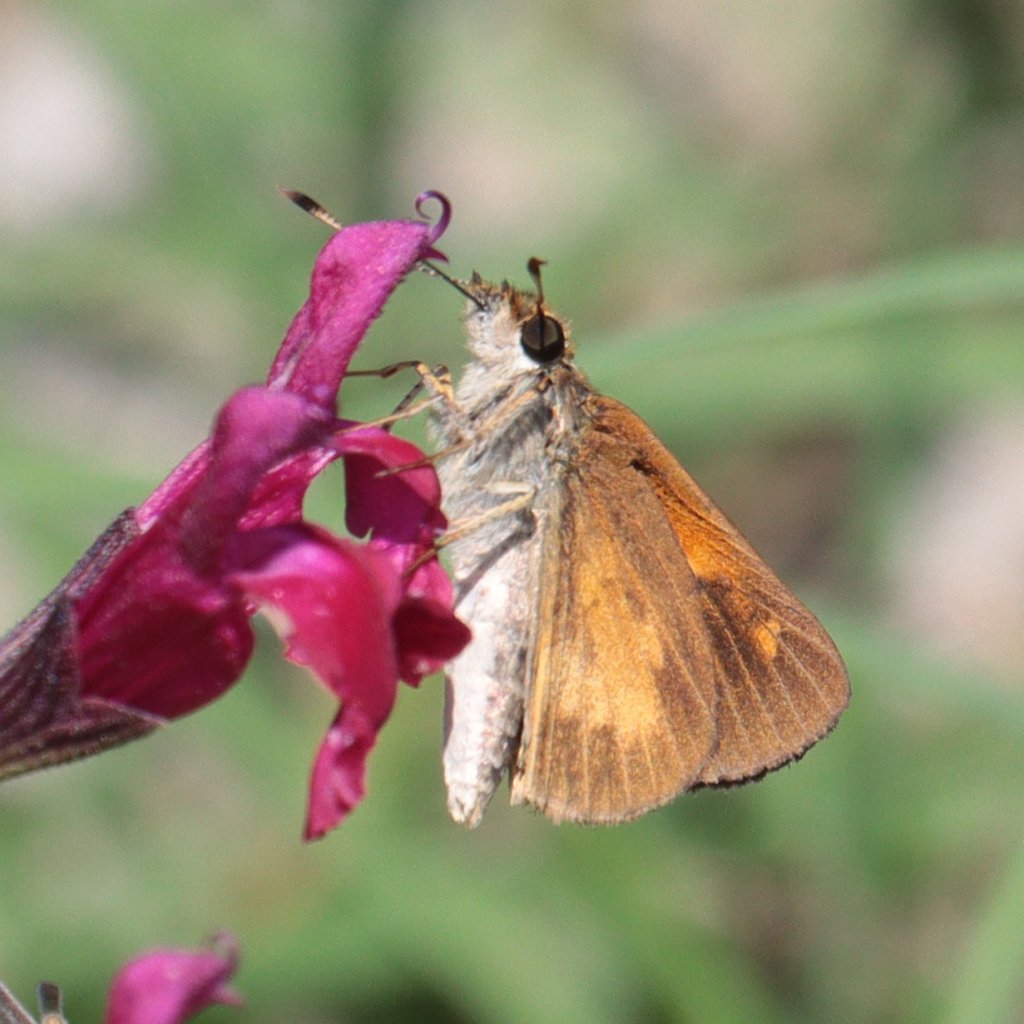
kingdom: Animalia
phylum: Arthropoda
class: Insecta
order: Lepidoptera
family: Hesperiidae
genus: Poanes
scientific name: Poanes viator
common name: Broad-winged Skipper
